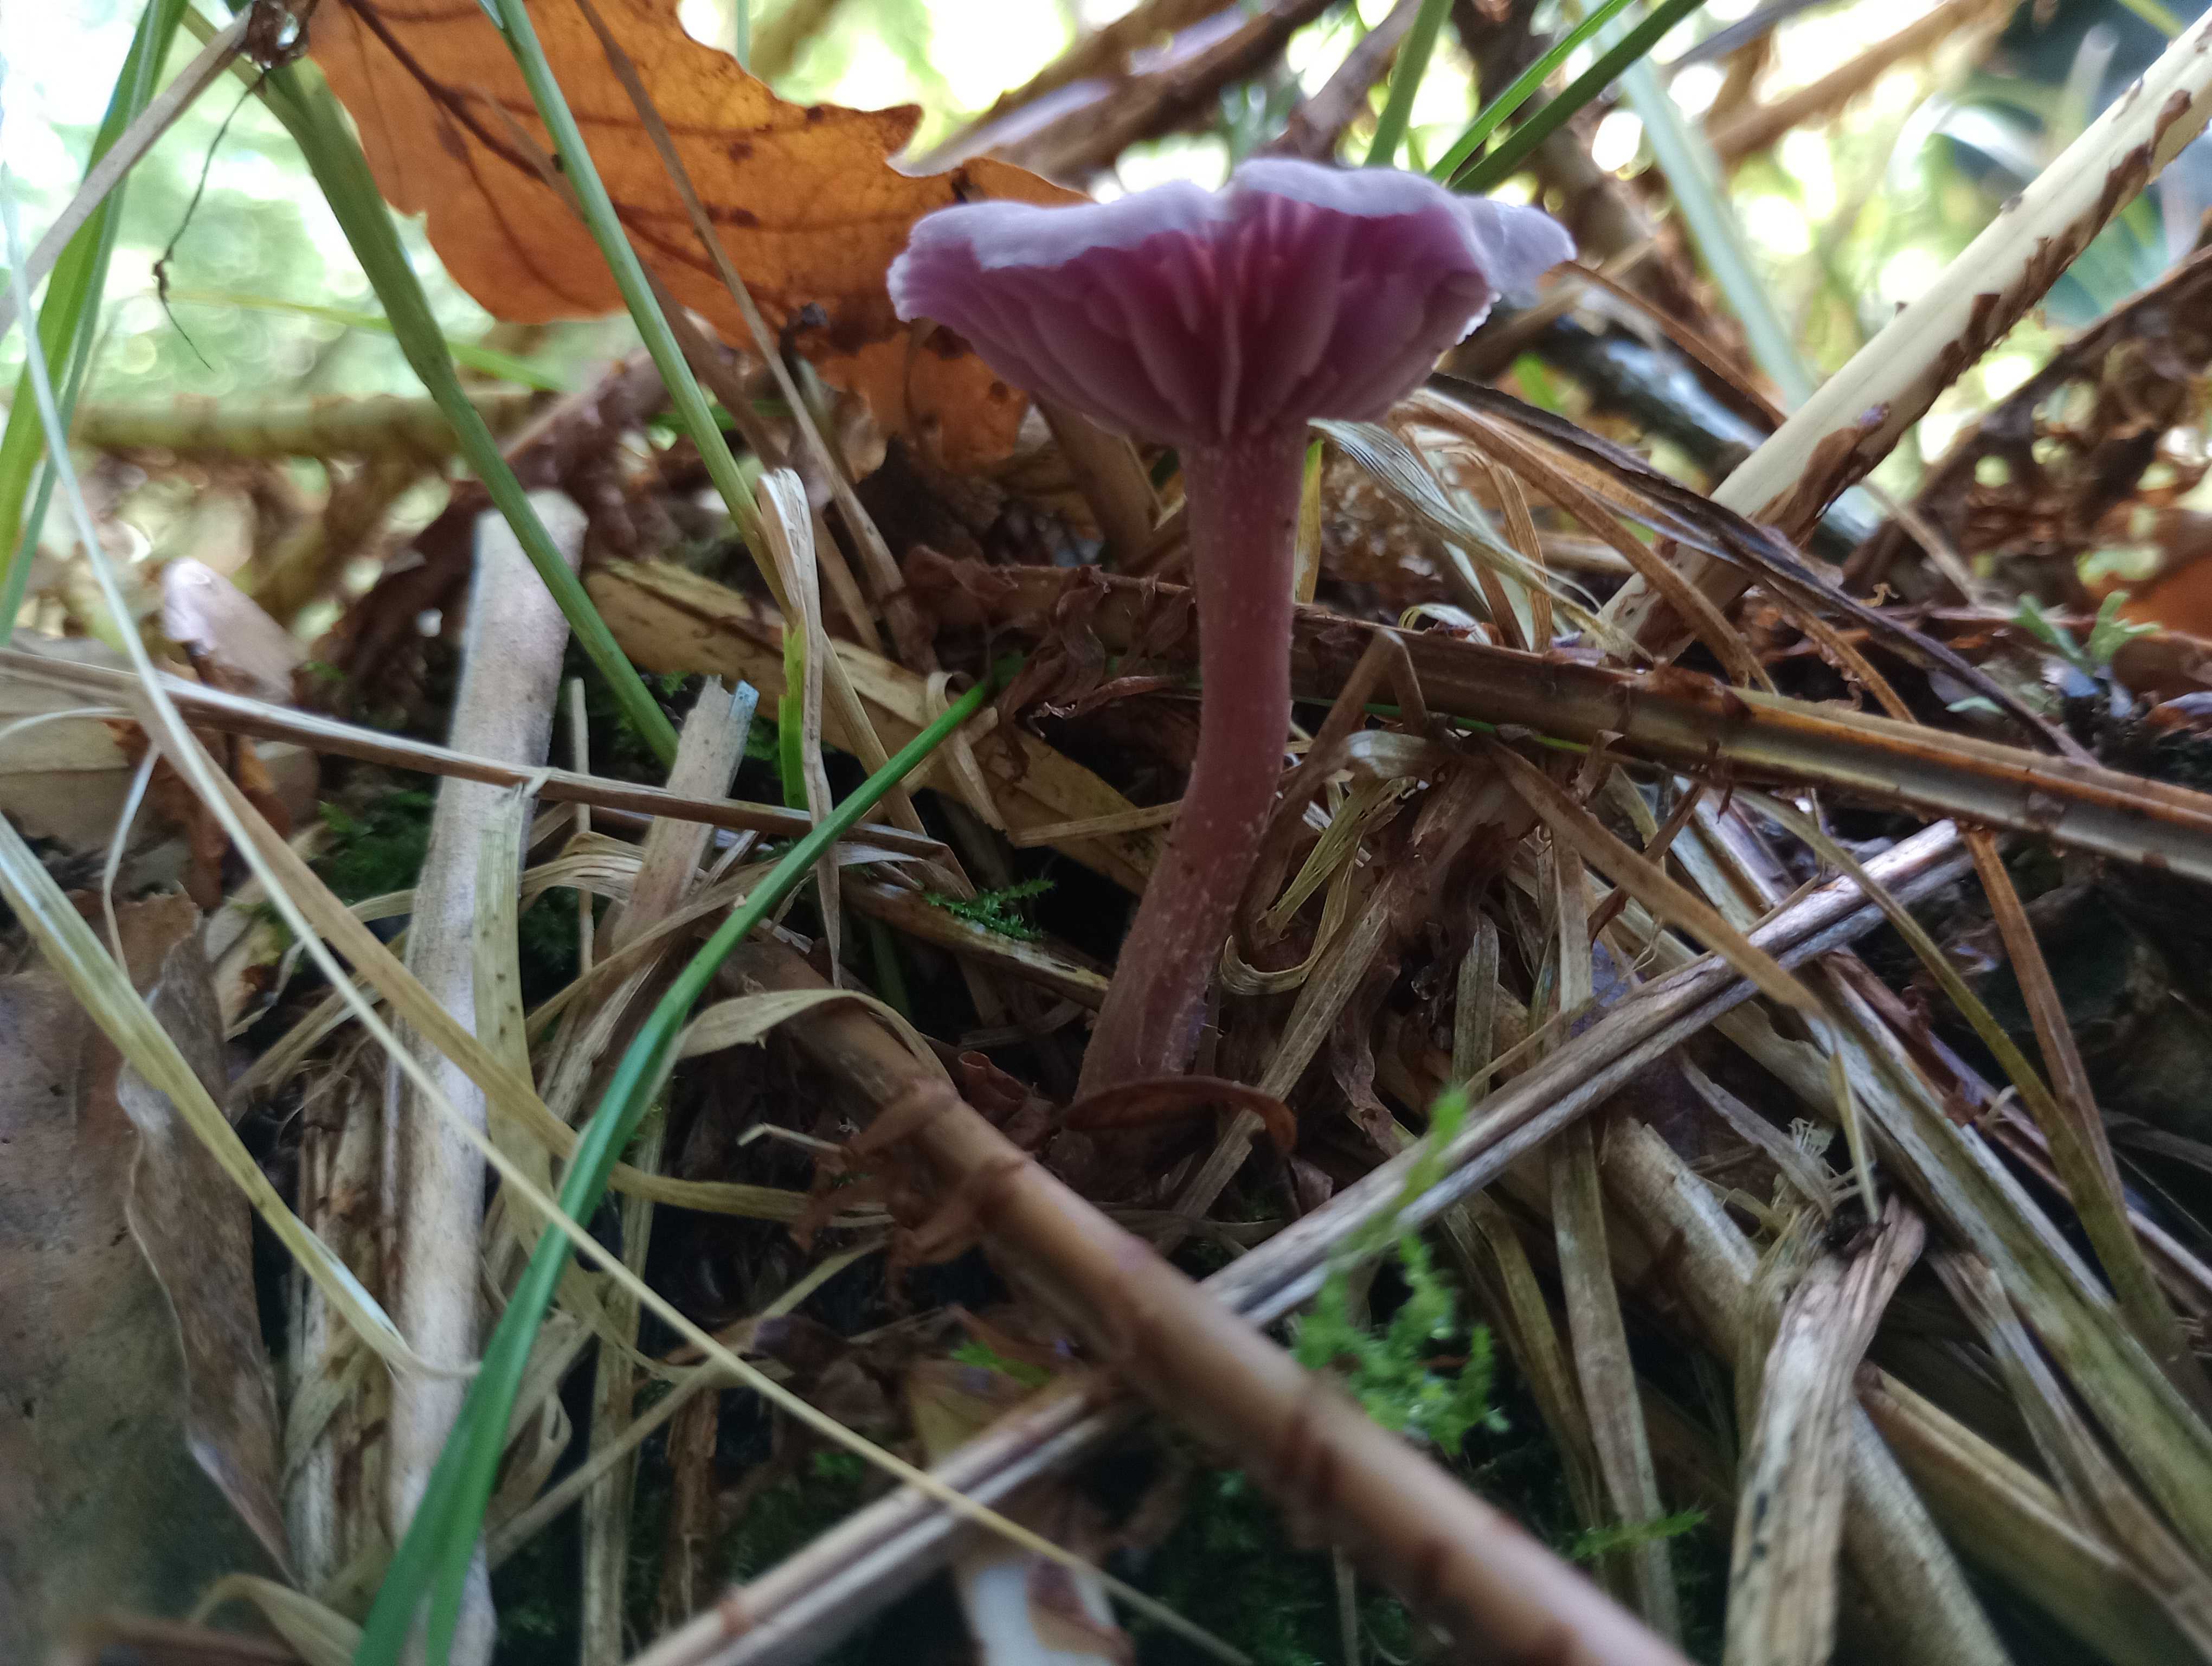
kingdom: Fungi
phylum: Basidiomycota
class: Agaricomycetes
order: Agaricales
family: Hydnangiaceae
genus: Laccaria
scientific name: Laccaria amethystina
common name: violet ametysthat
